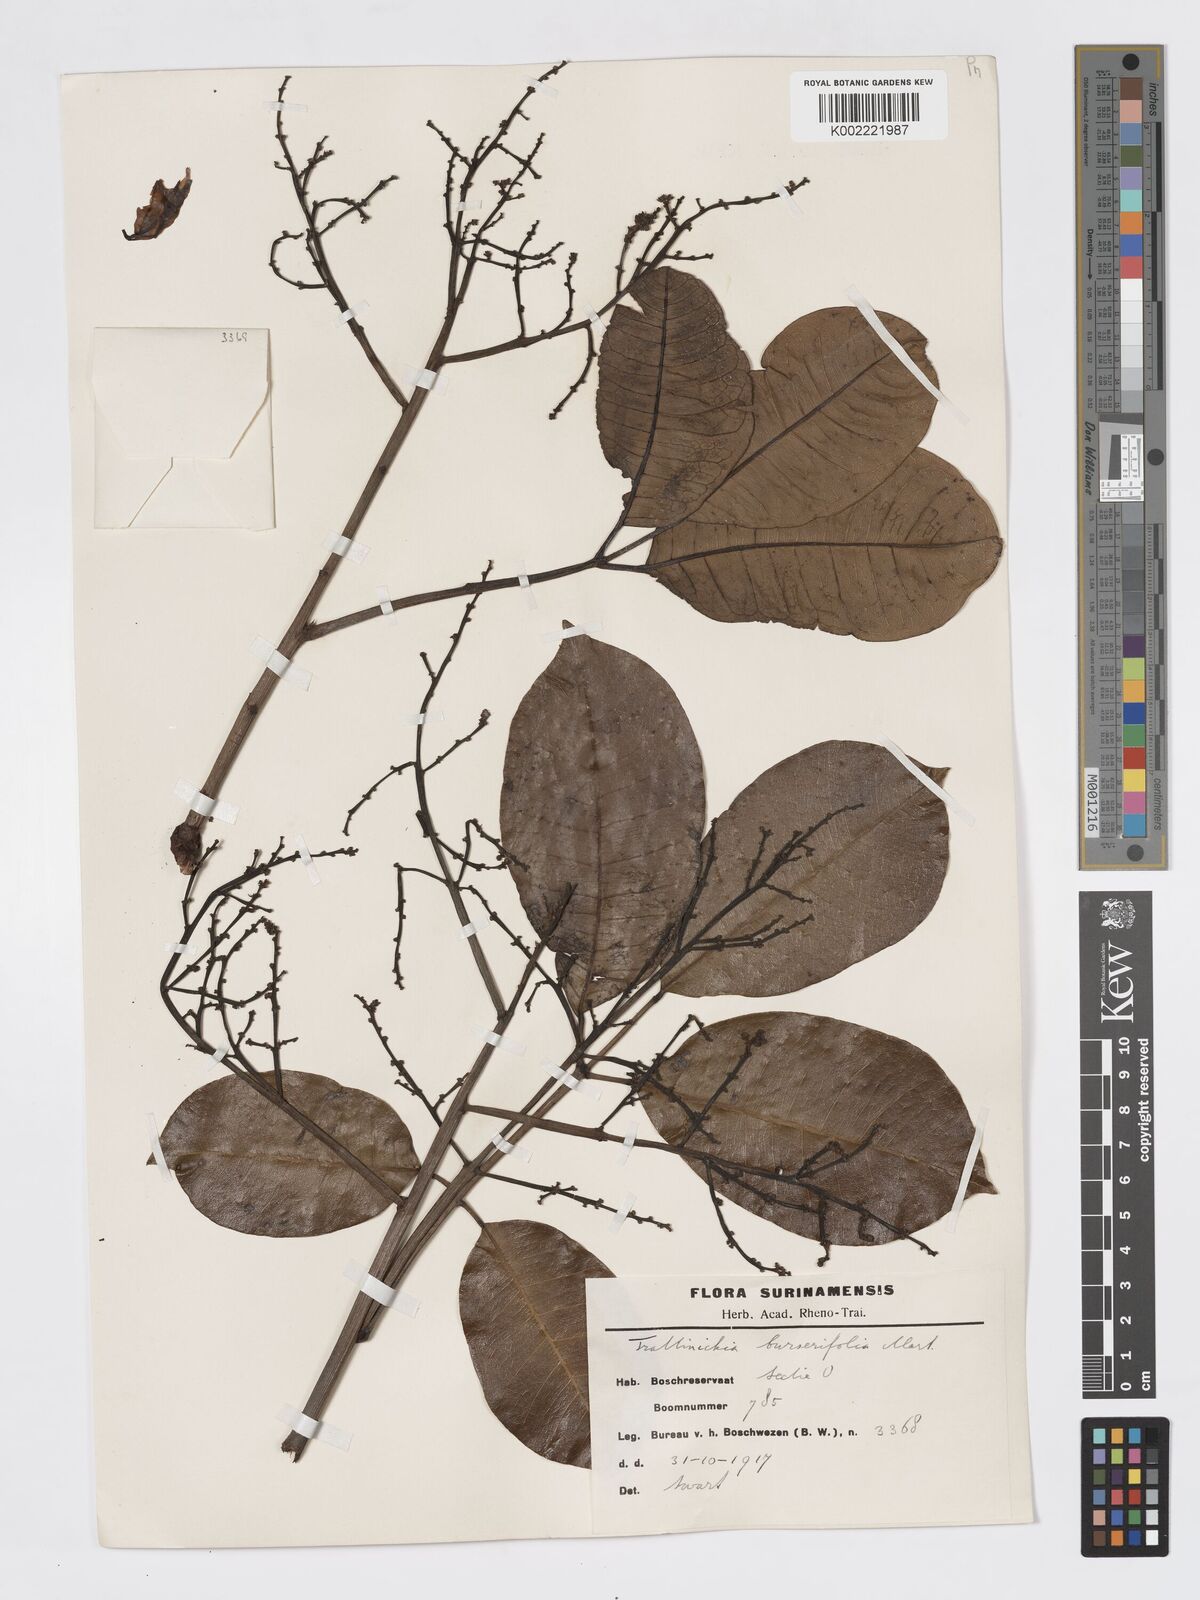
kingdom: Plantae
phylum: Tracheophyta
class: Magnoliopsida
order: Sapindales
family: Burseraceae
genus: Trattinnickia
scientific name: Trattinnickia burserifolia
